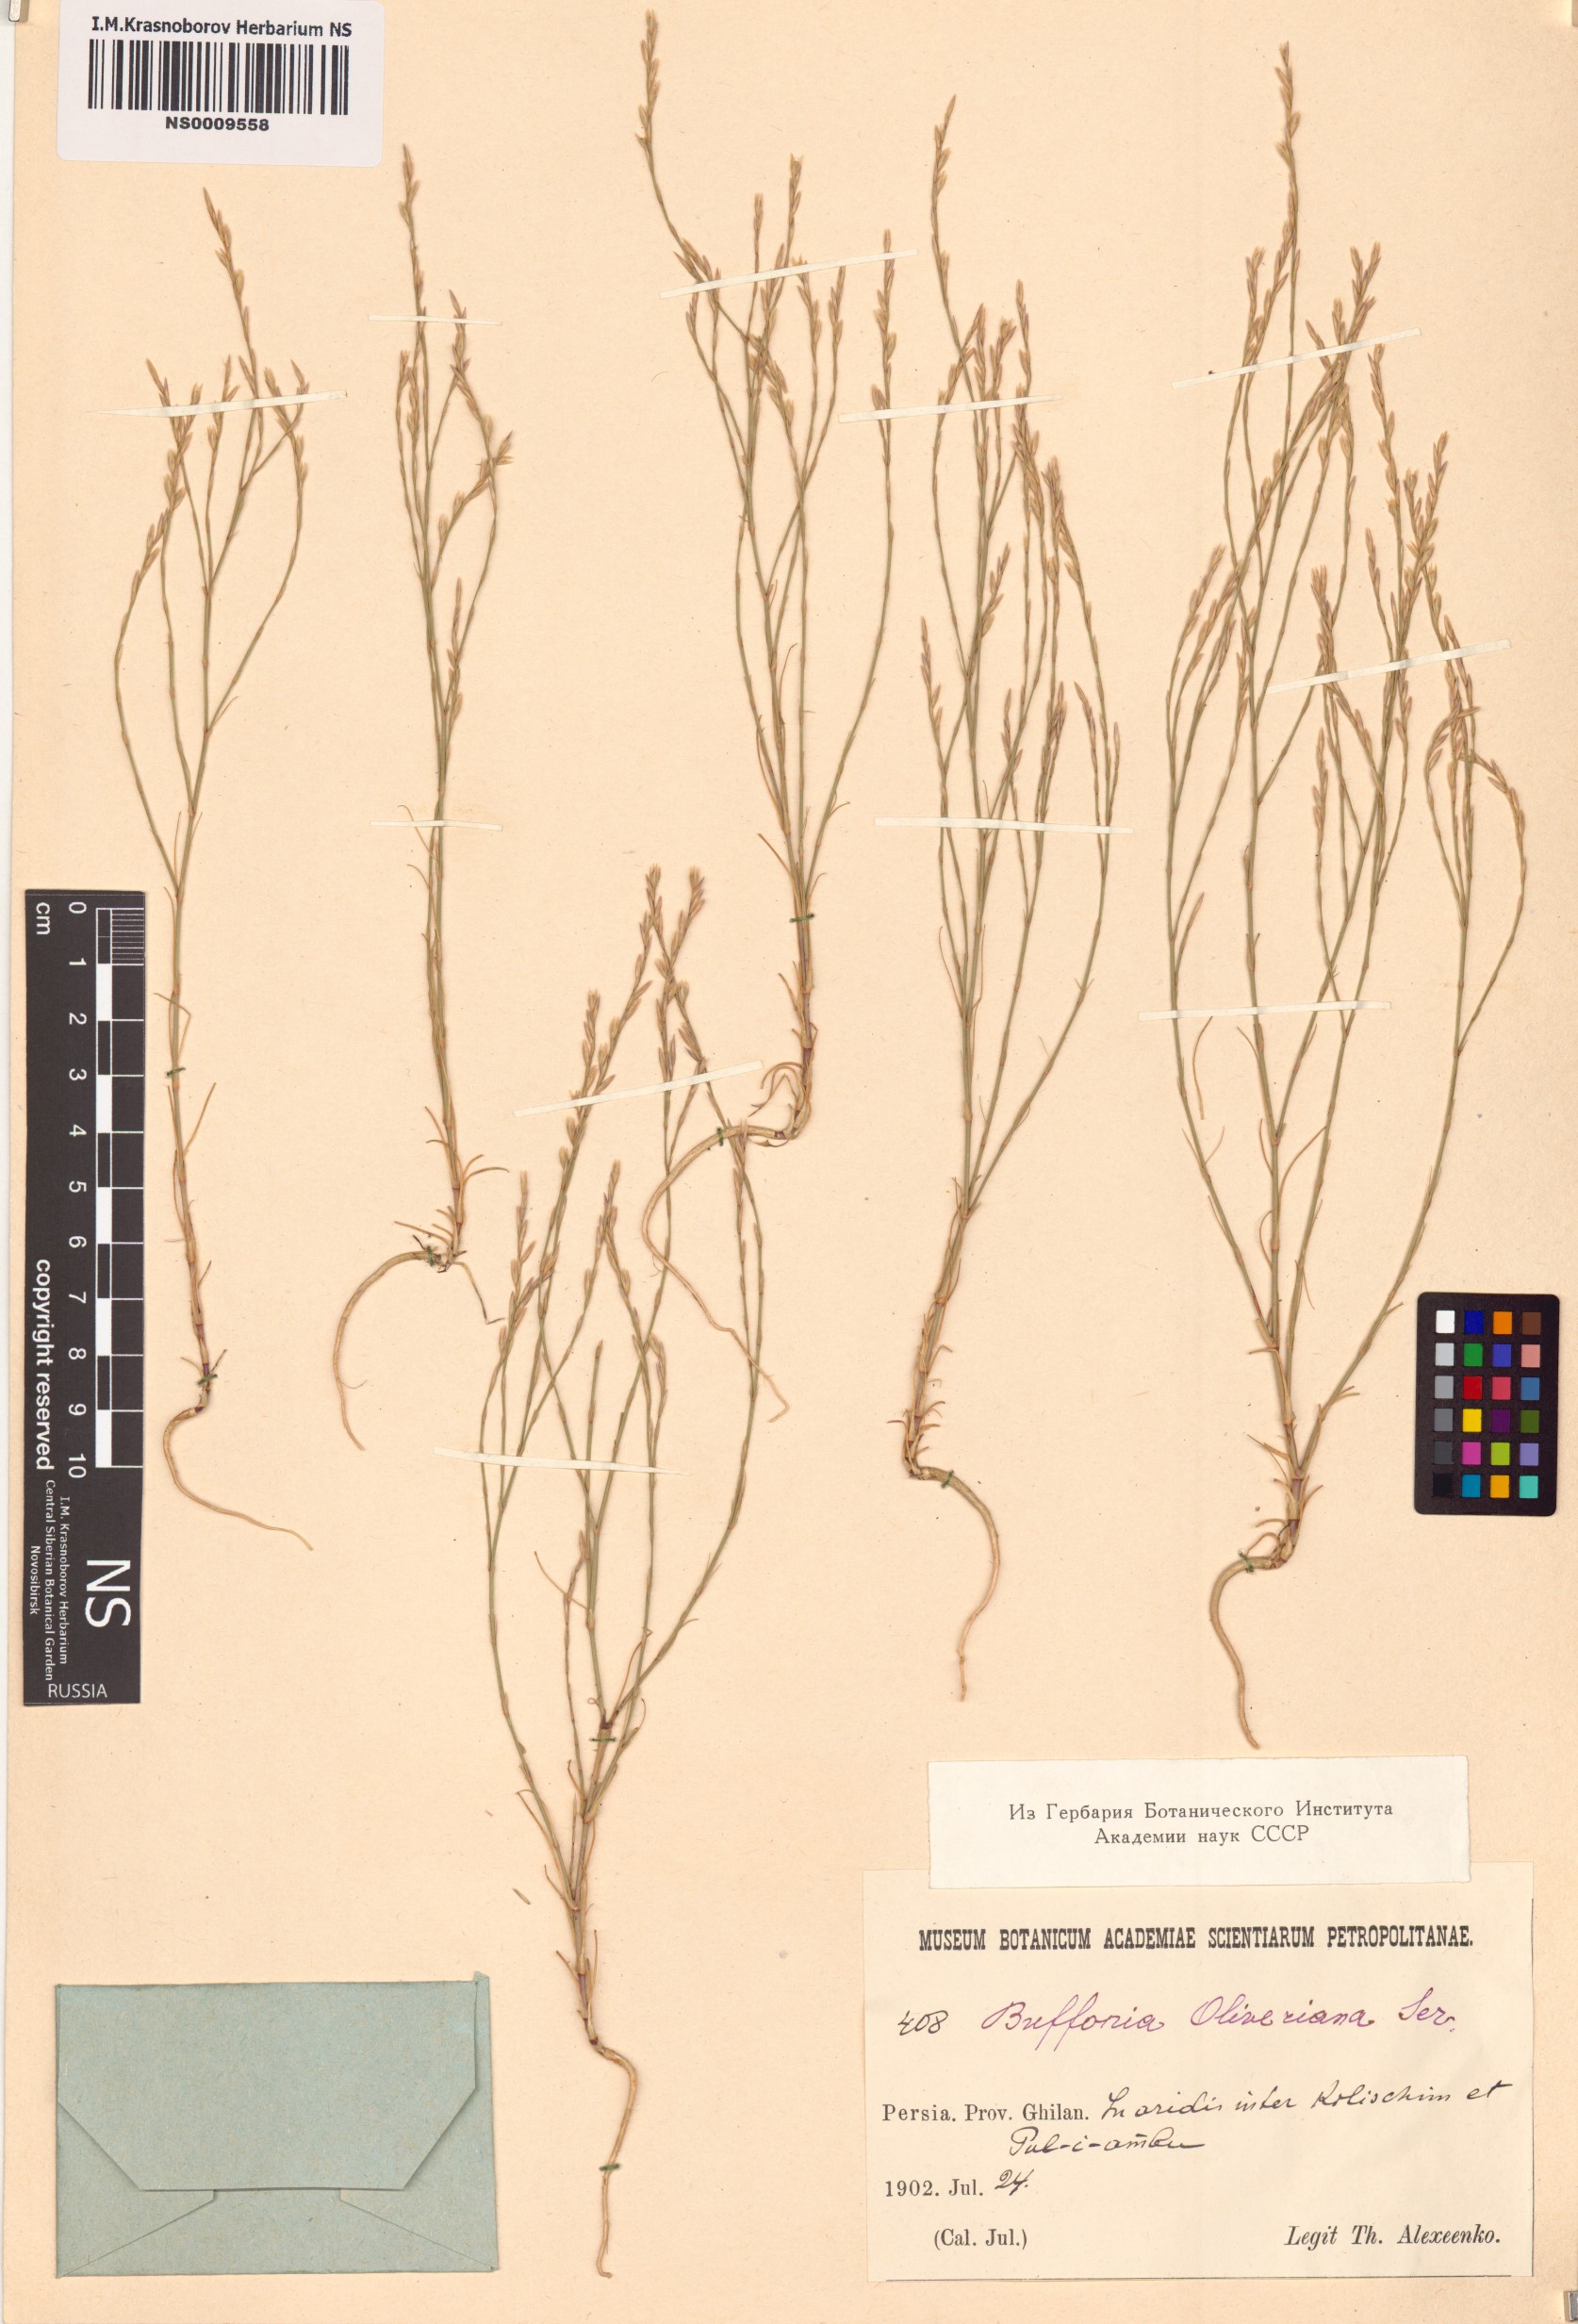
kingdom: Plantae
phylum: Tracheophyta
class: Magnoliopsida
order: Caryophyllales
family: Caryophyllaceae
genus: Bufonia
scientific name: Bufonia oliveriana
